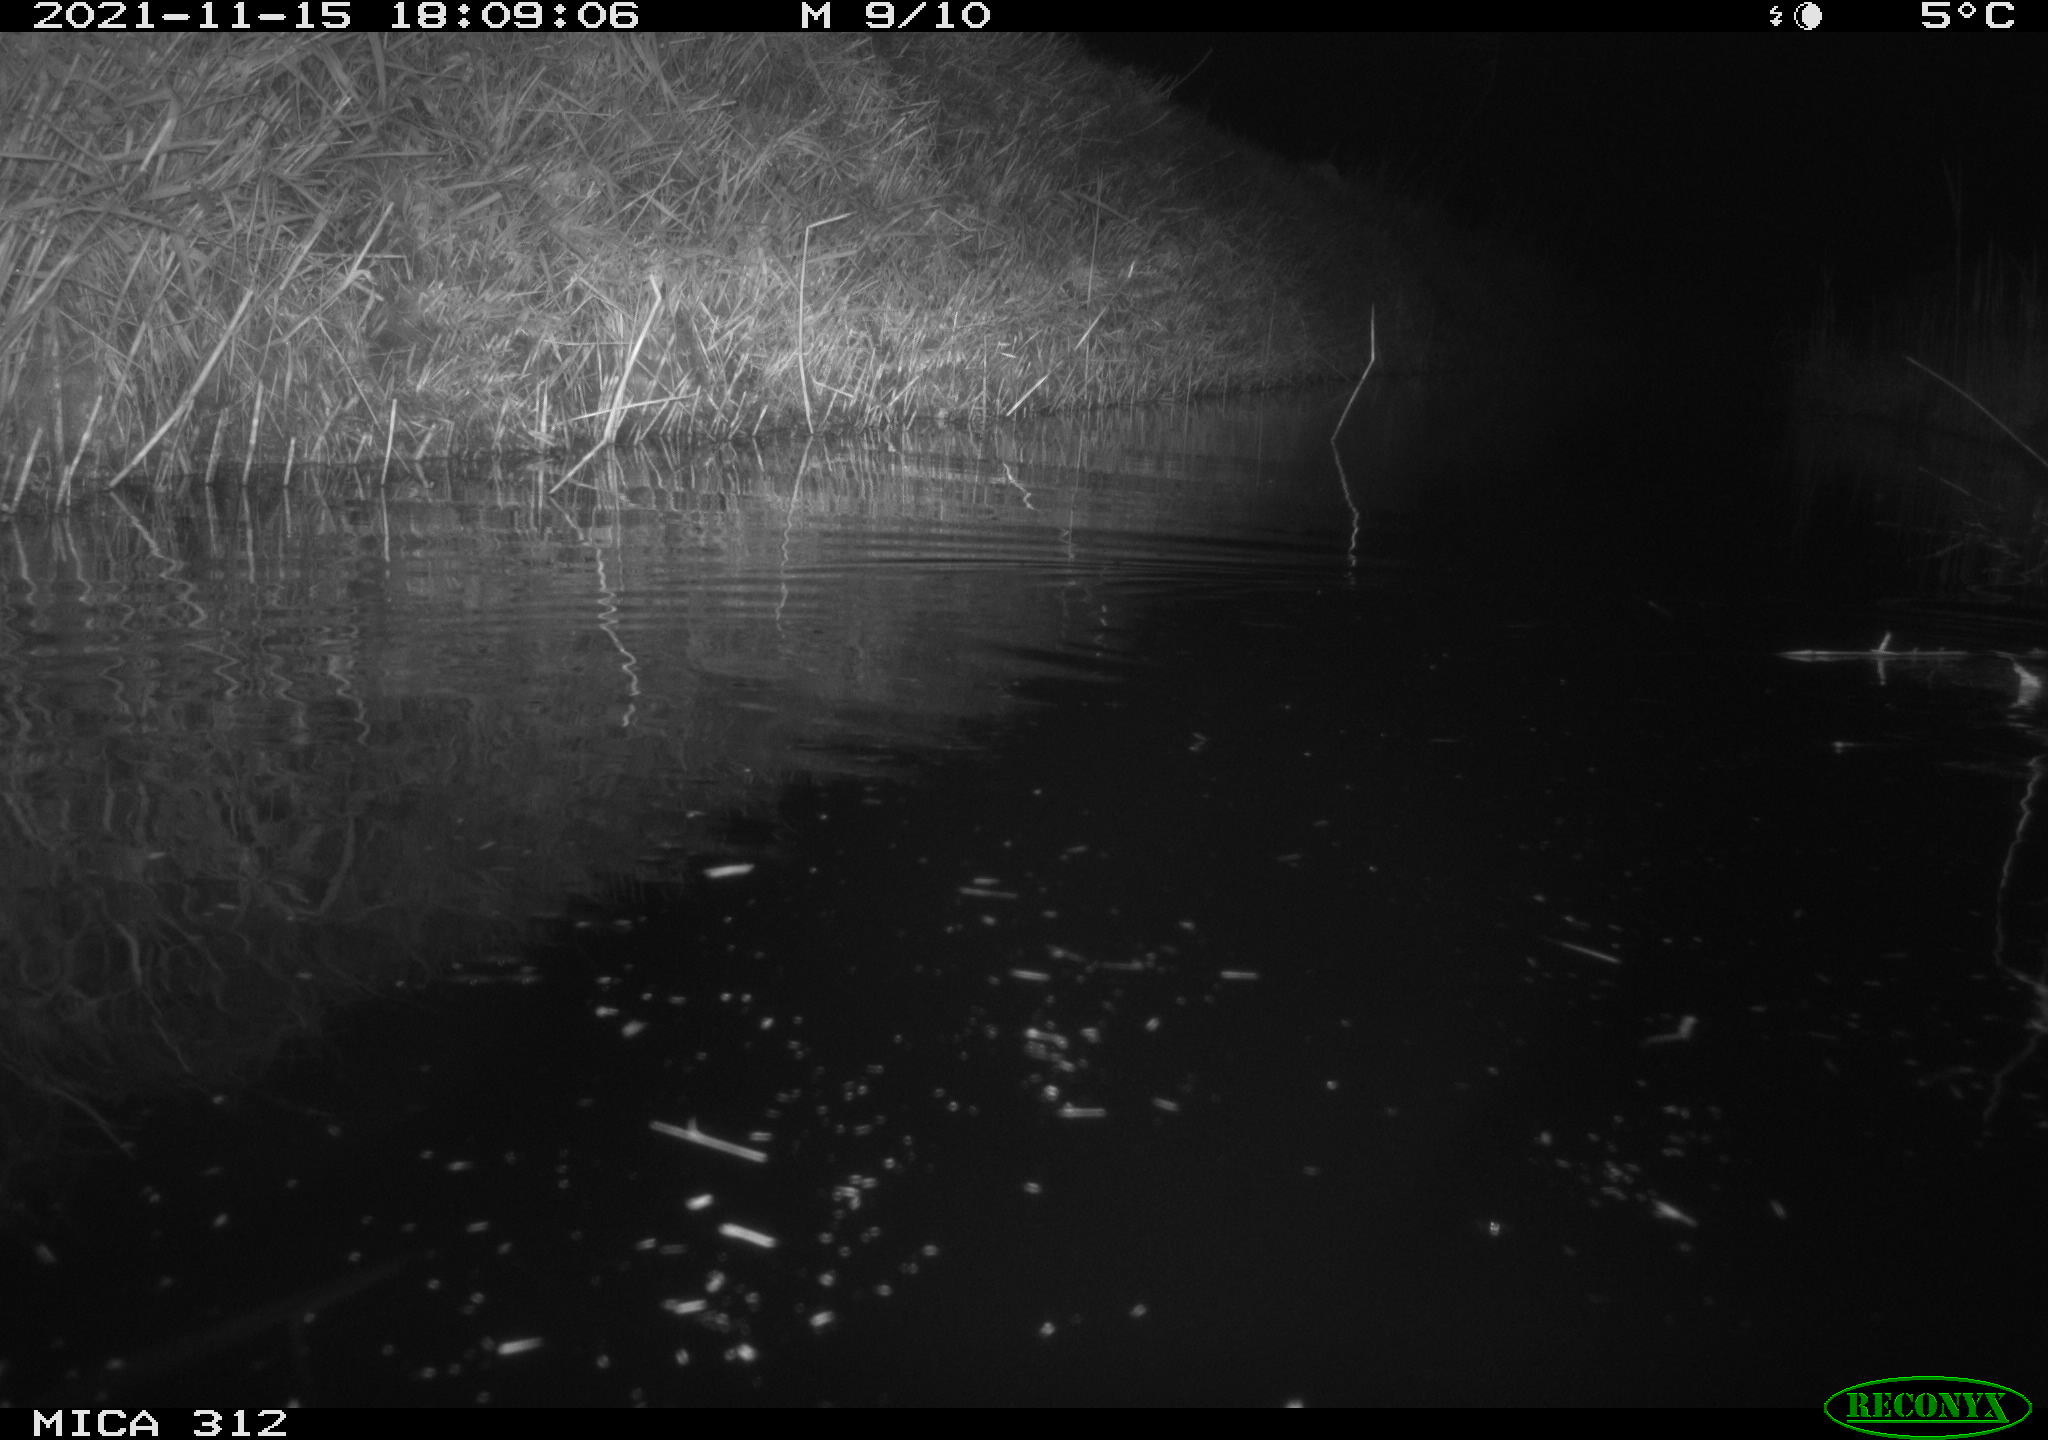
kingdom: Animalia
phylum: Chordata
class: Mammalia
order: Rodentia
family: Muridae
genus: Rattus
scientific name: Rattus norvegicus
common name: Brown rat
